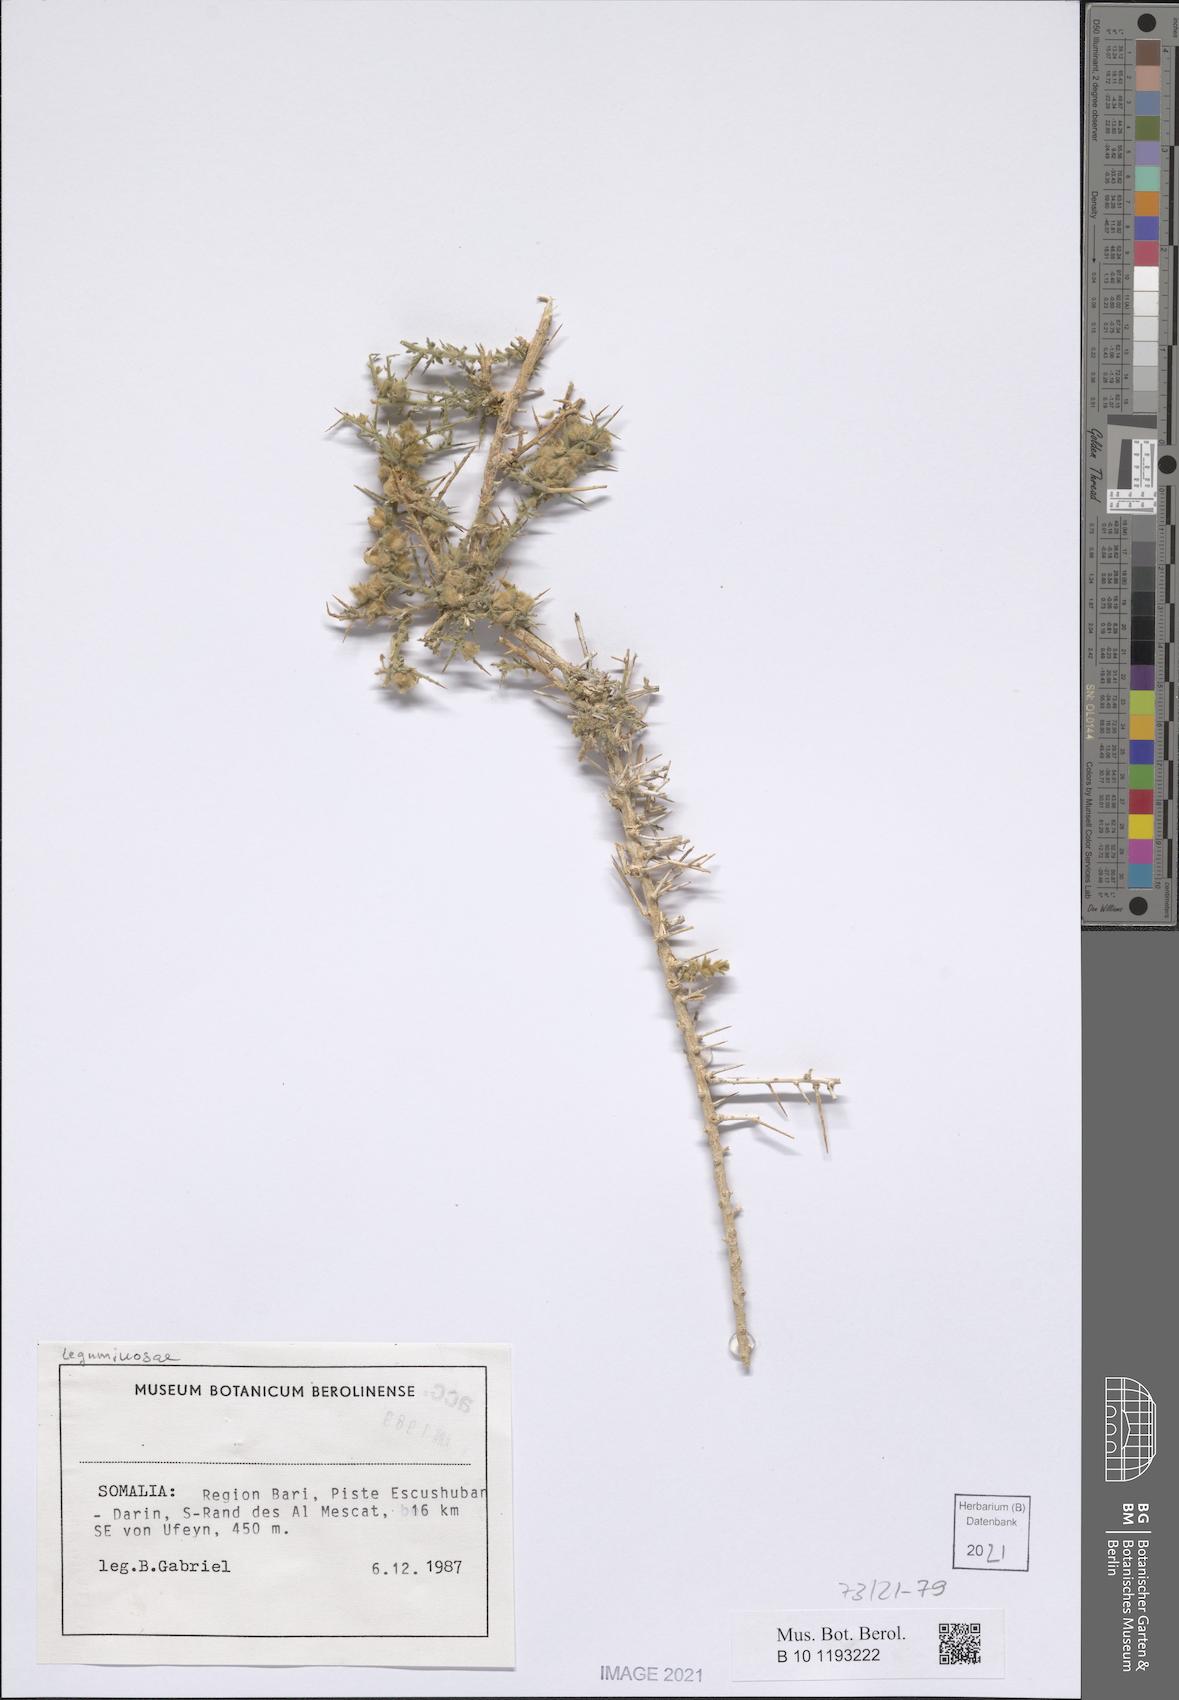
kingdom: Plantae
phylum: Tracheophyta
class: Magnoliopsida
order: Solanales
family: Convolvulaceae
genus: Convolvulus
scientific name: Convolvulus hystrix
